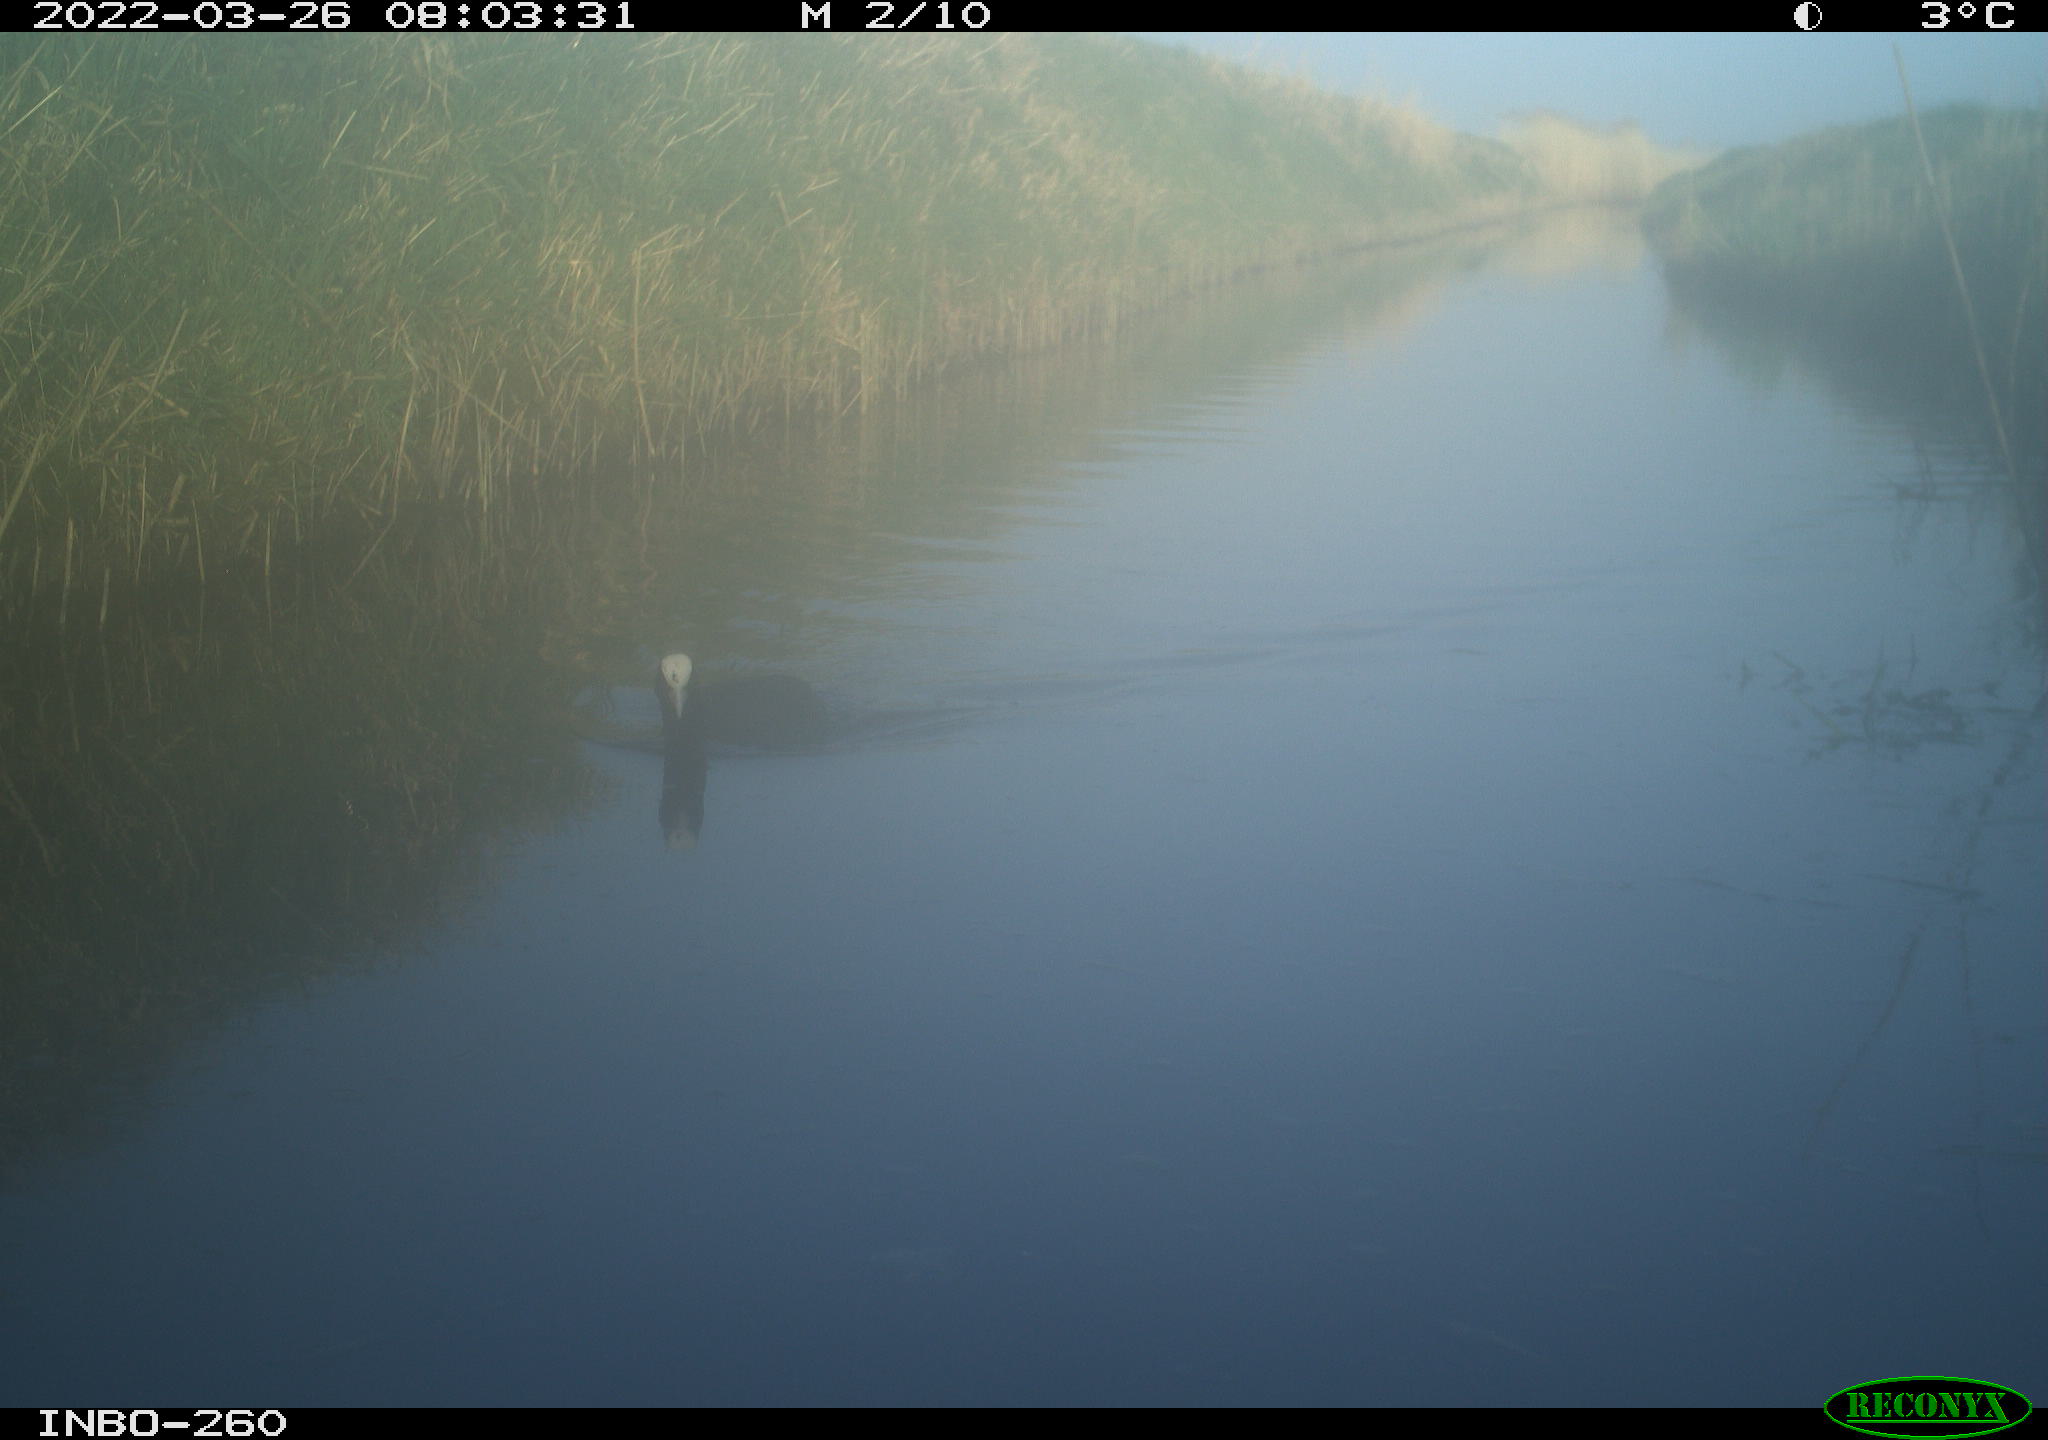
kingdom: Animalia
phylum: Chordata
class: Aves
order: Gruiformes
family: Rallidae
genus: Fulica
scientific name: Fulica atra
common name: Eurasian coot
